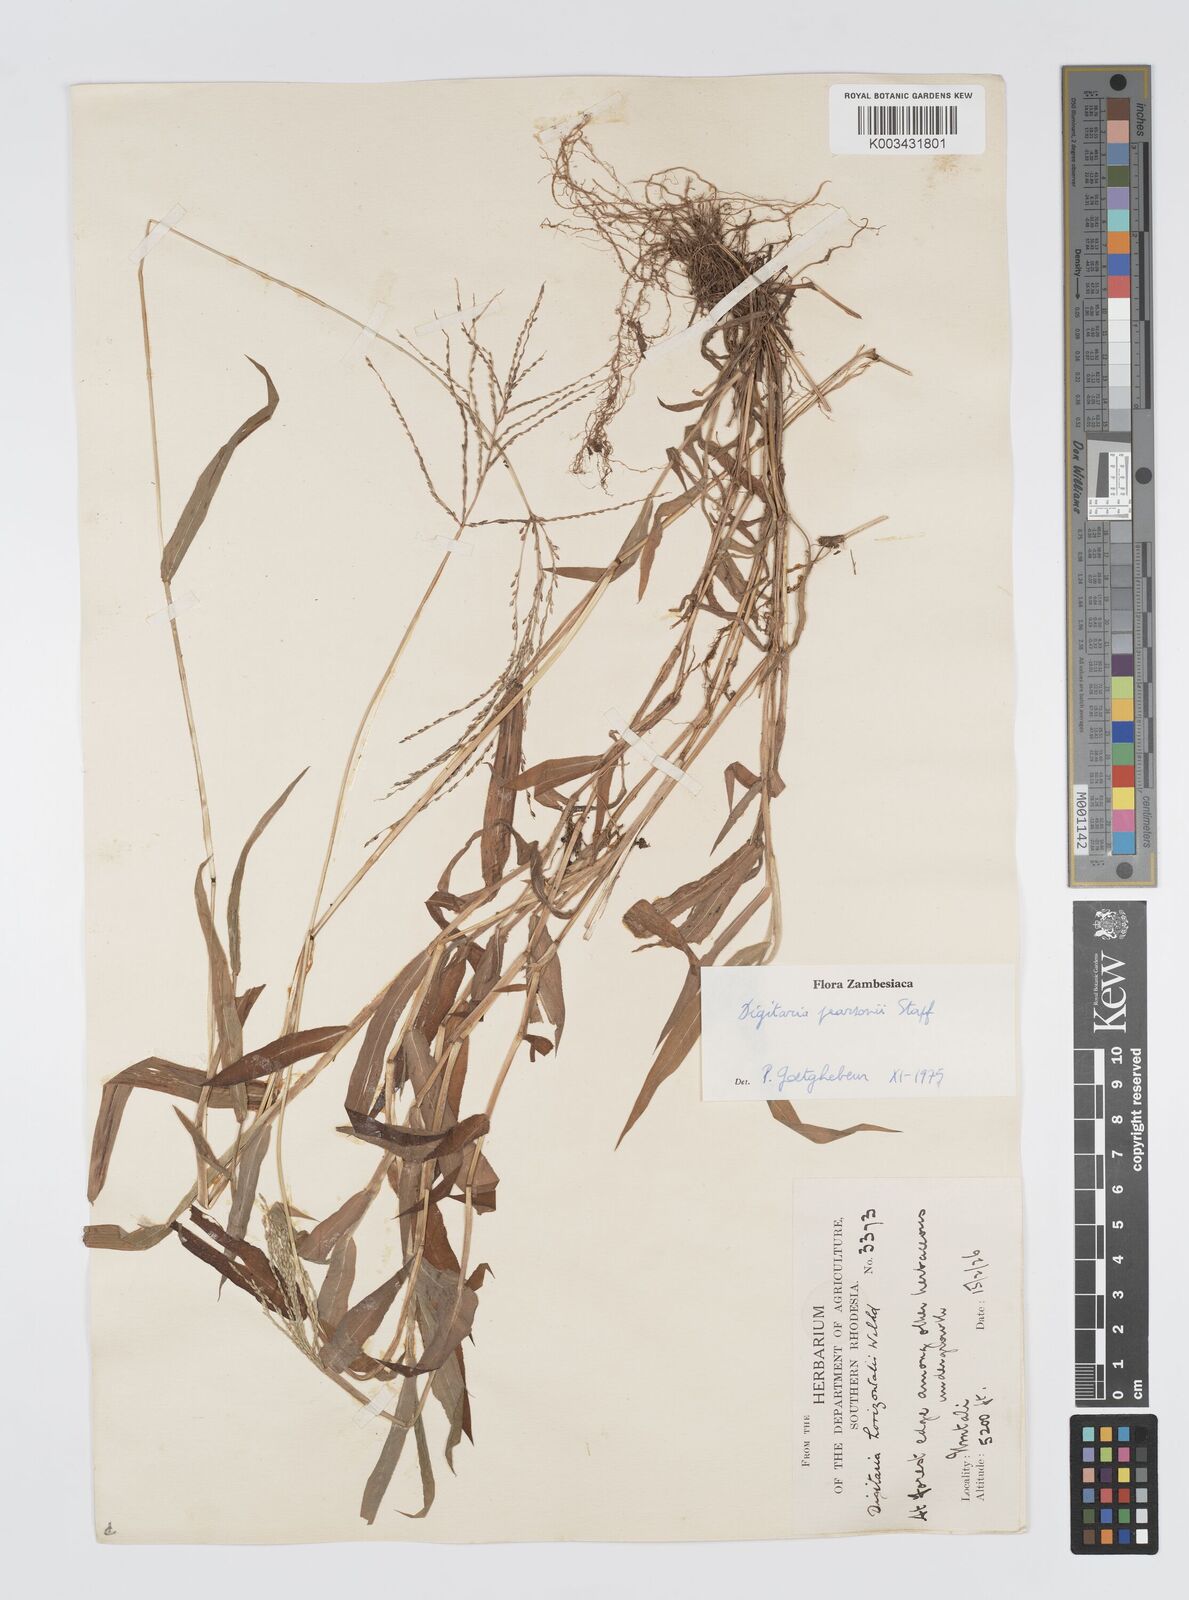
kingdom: Plantae
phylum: Tracheophyta
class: Liliopsida
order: Poales
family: Poaceae
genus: Digitaria
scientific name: Digitaria pearsonii
